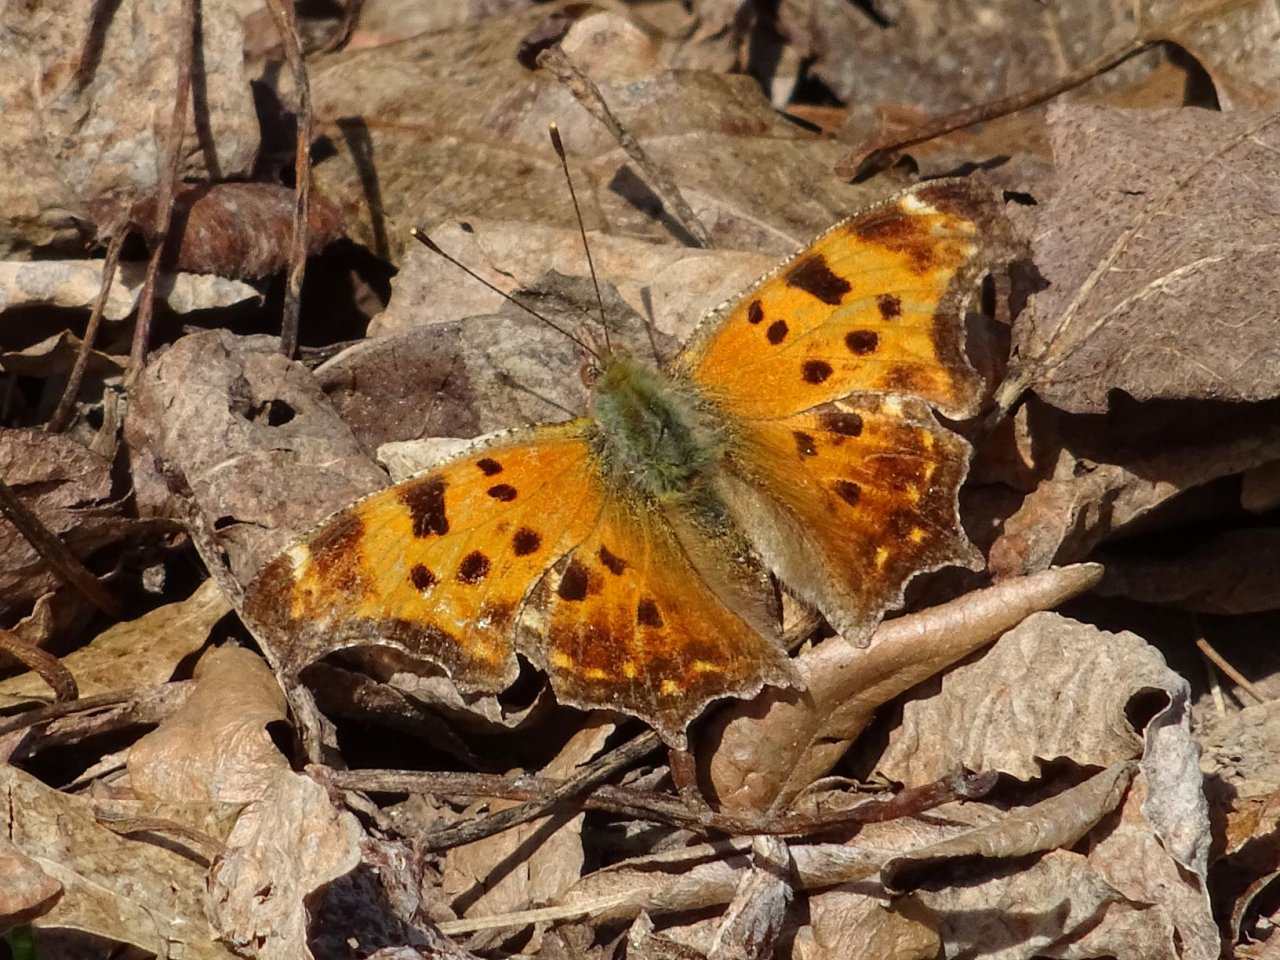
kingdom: Animalia
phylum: Arthropoda
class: Insecta
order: Lepidoptera
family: Nymphalidae
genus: Polygonia
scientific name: Polygonia comma
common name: Eastern Comma
